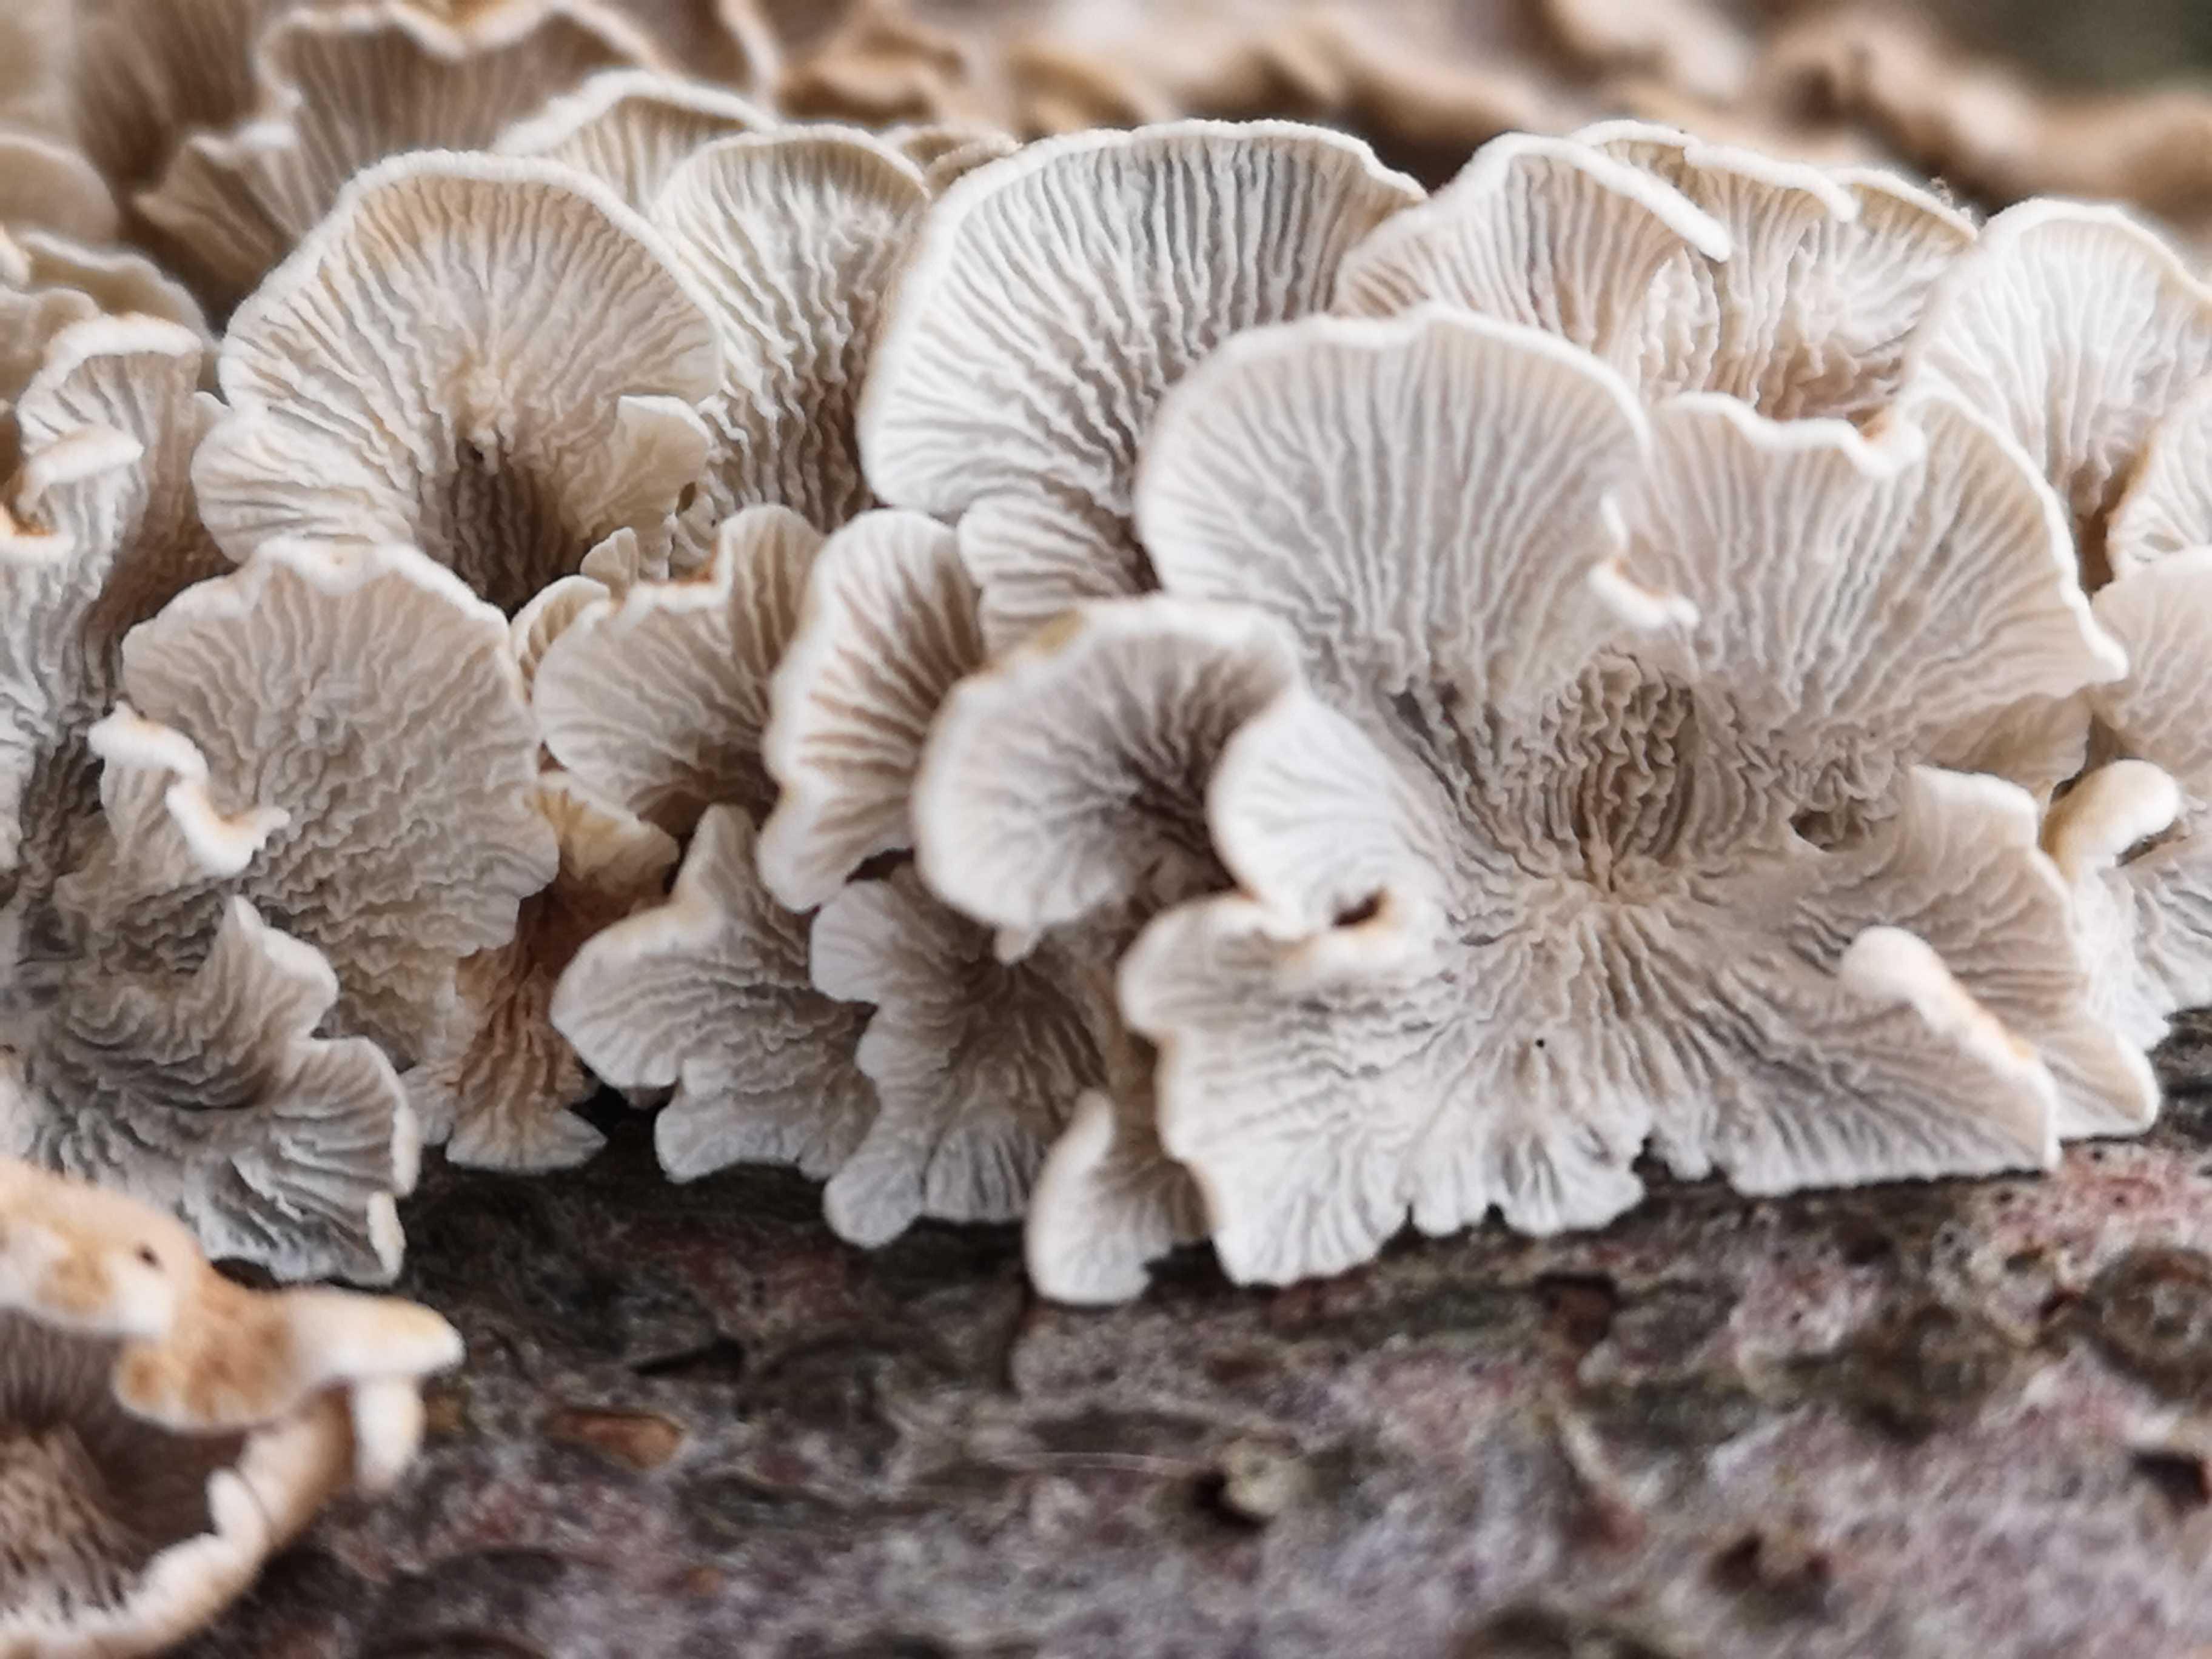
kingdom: Fungi
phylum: Basidiomycota
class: Agaricomycetes
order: Amylocorticiales
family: Amylocorticiaceae
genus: Plicaturopsis
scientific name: Plicaturopsis crispa
